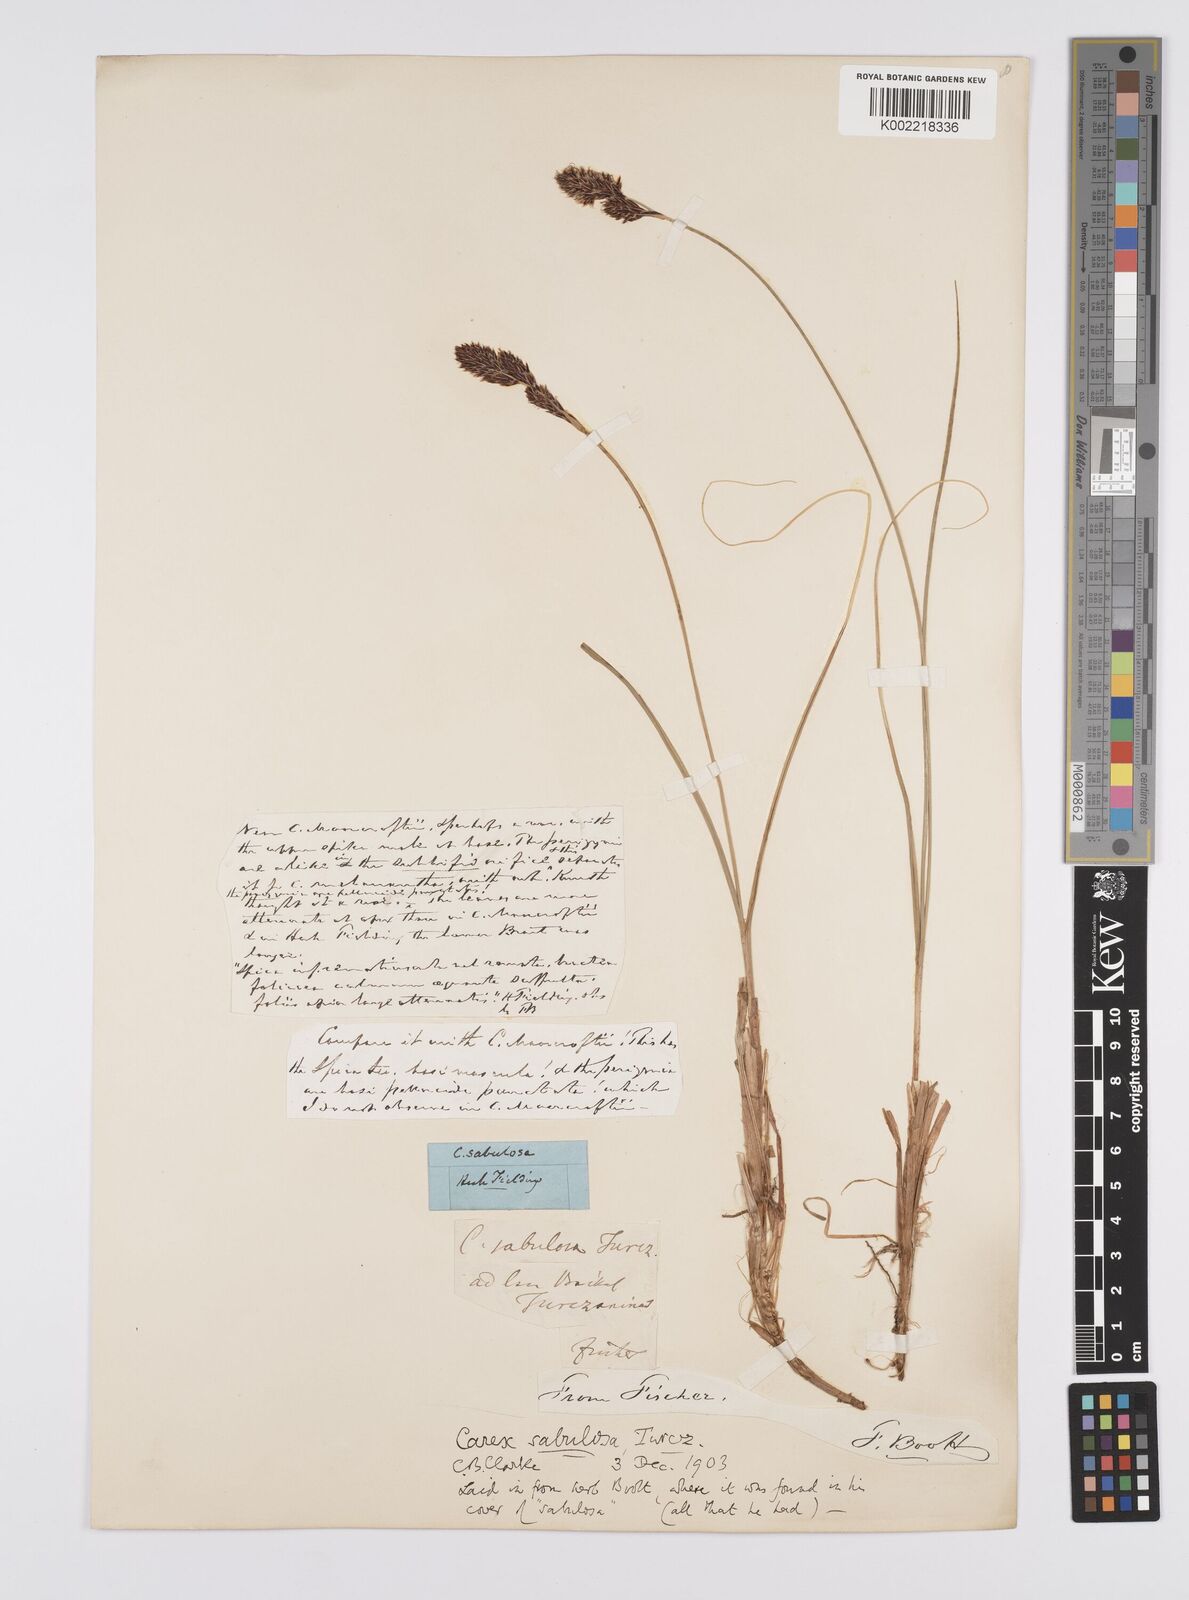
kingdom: Plantae
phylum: Tracheophyta
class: Liliopsida
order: Poales
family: Cyperaceae
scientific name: Cyperaceae
